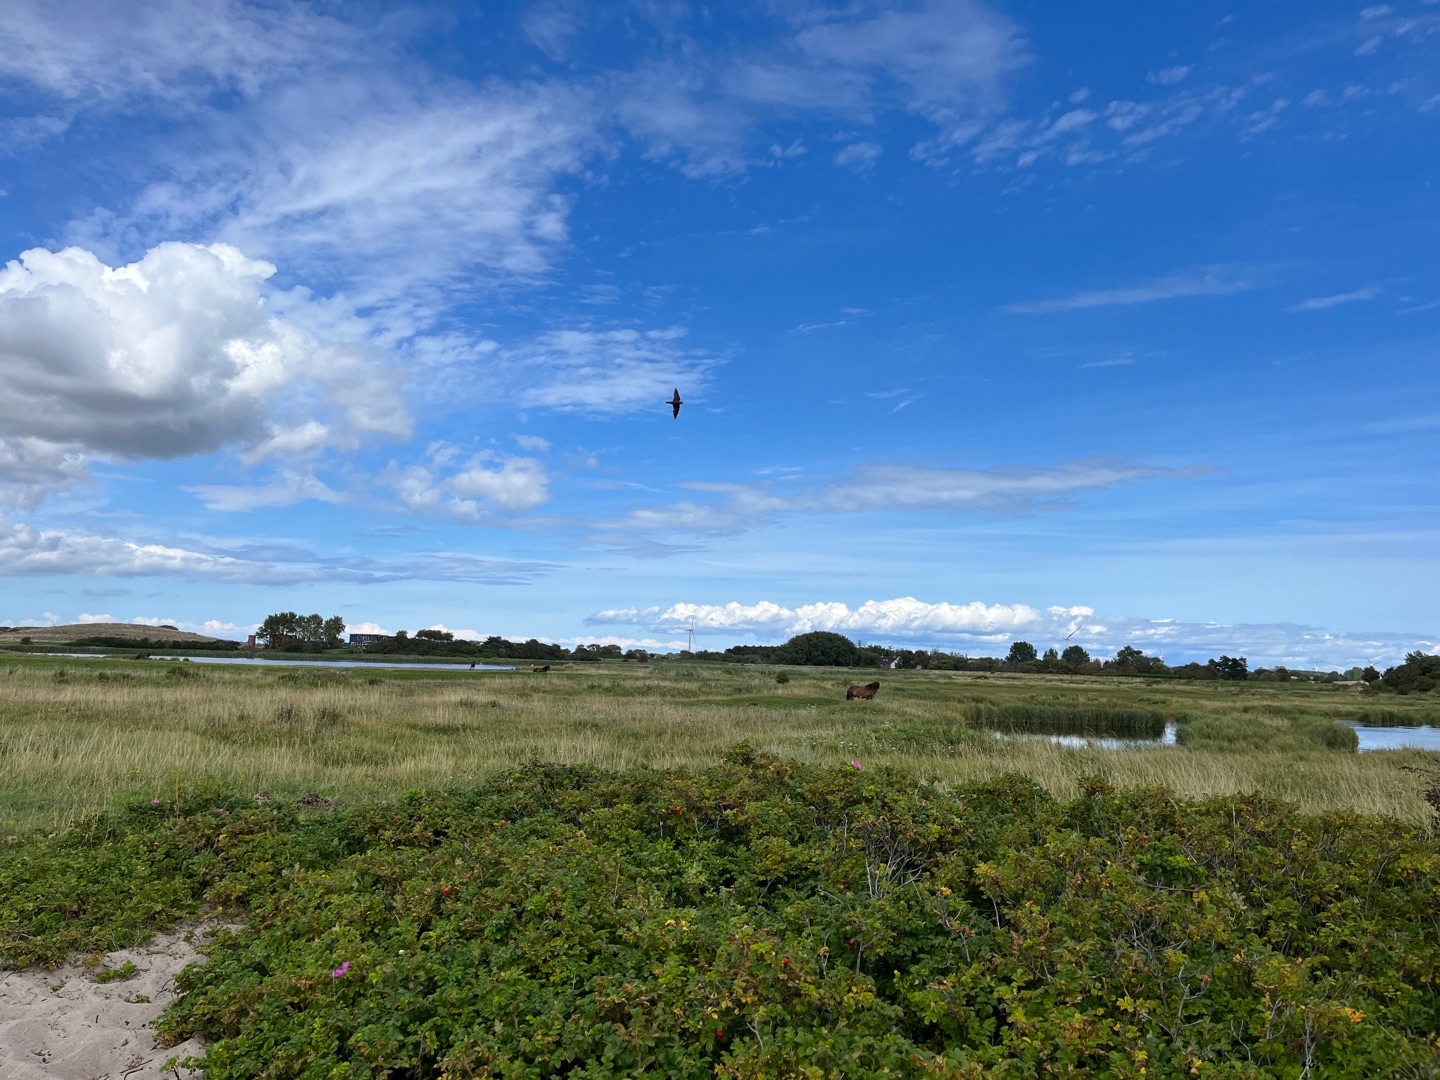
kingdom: Animalia
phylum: Chordata
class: Aves
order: Passeriformes
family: Hirundinidae
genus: Riparia
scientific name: Riparia riparia
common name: Digesvale
